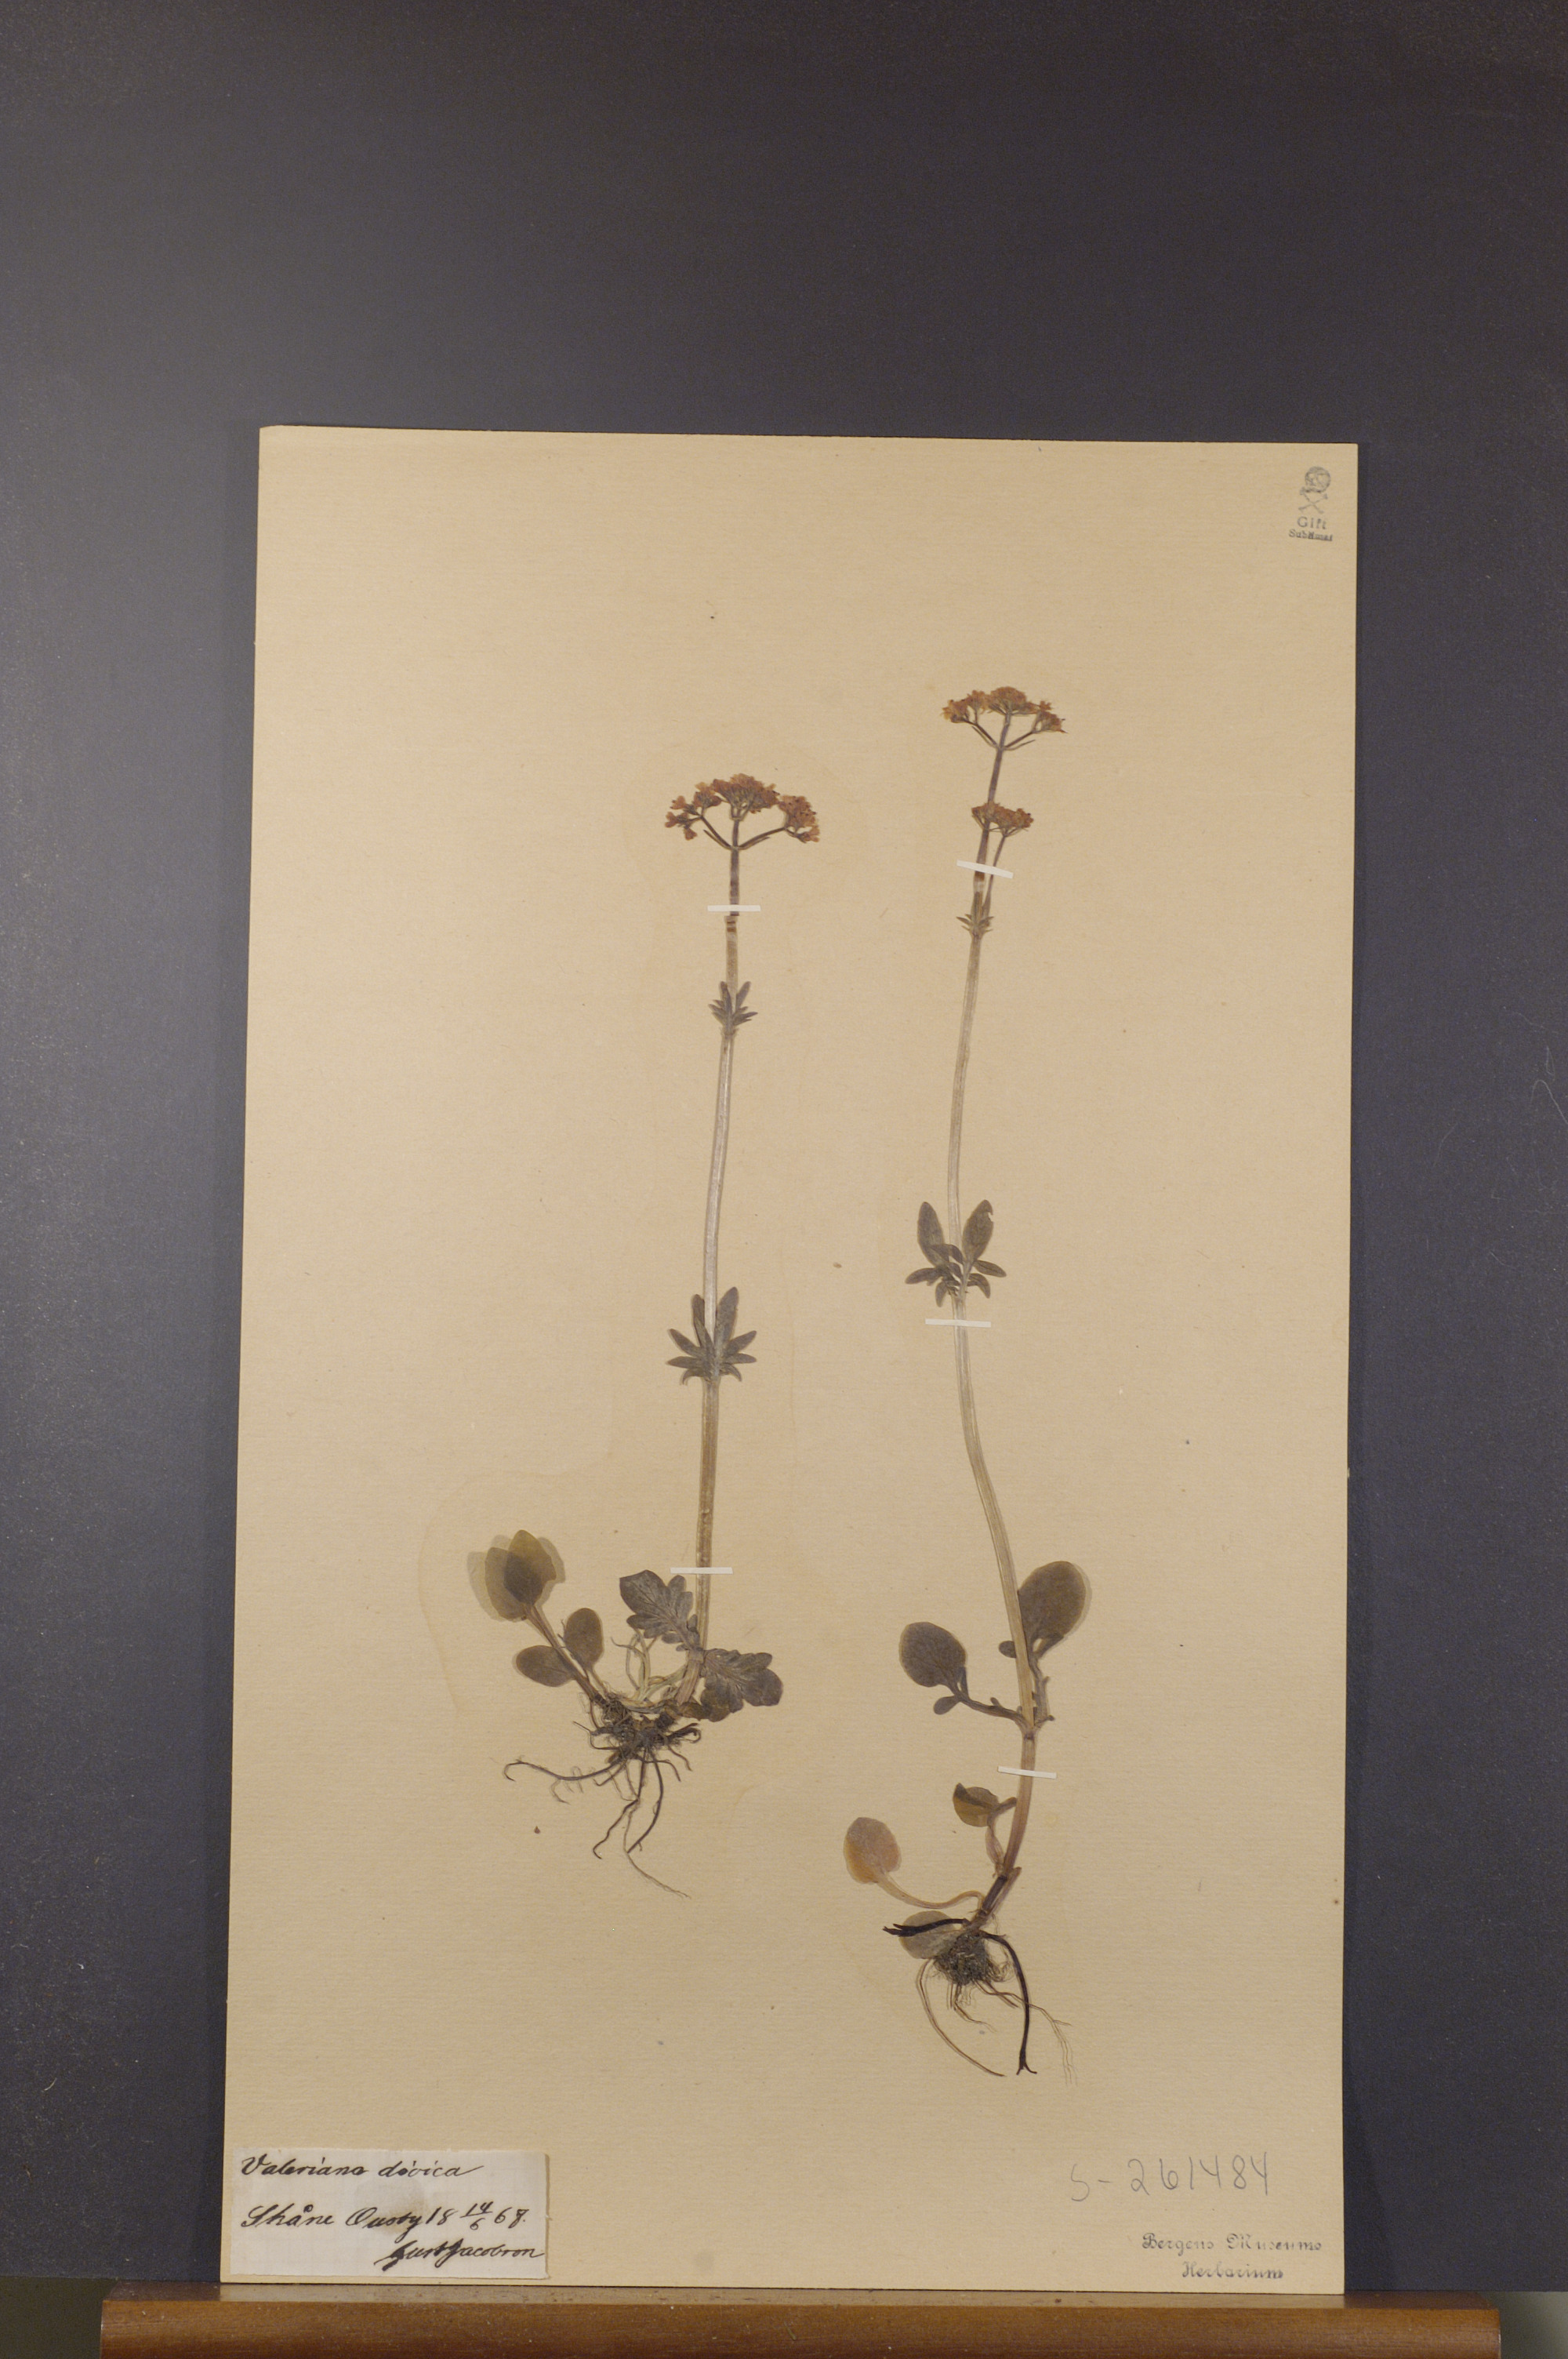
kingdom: Plantae
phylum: Tracheophyta
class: Magnoliopsida
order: Dipsacales
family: Caprifoliaceae
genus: Valeriana
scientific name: Valeriana dioica
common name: Marsh valerian
